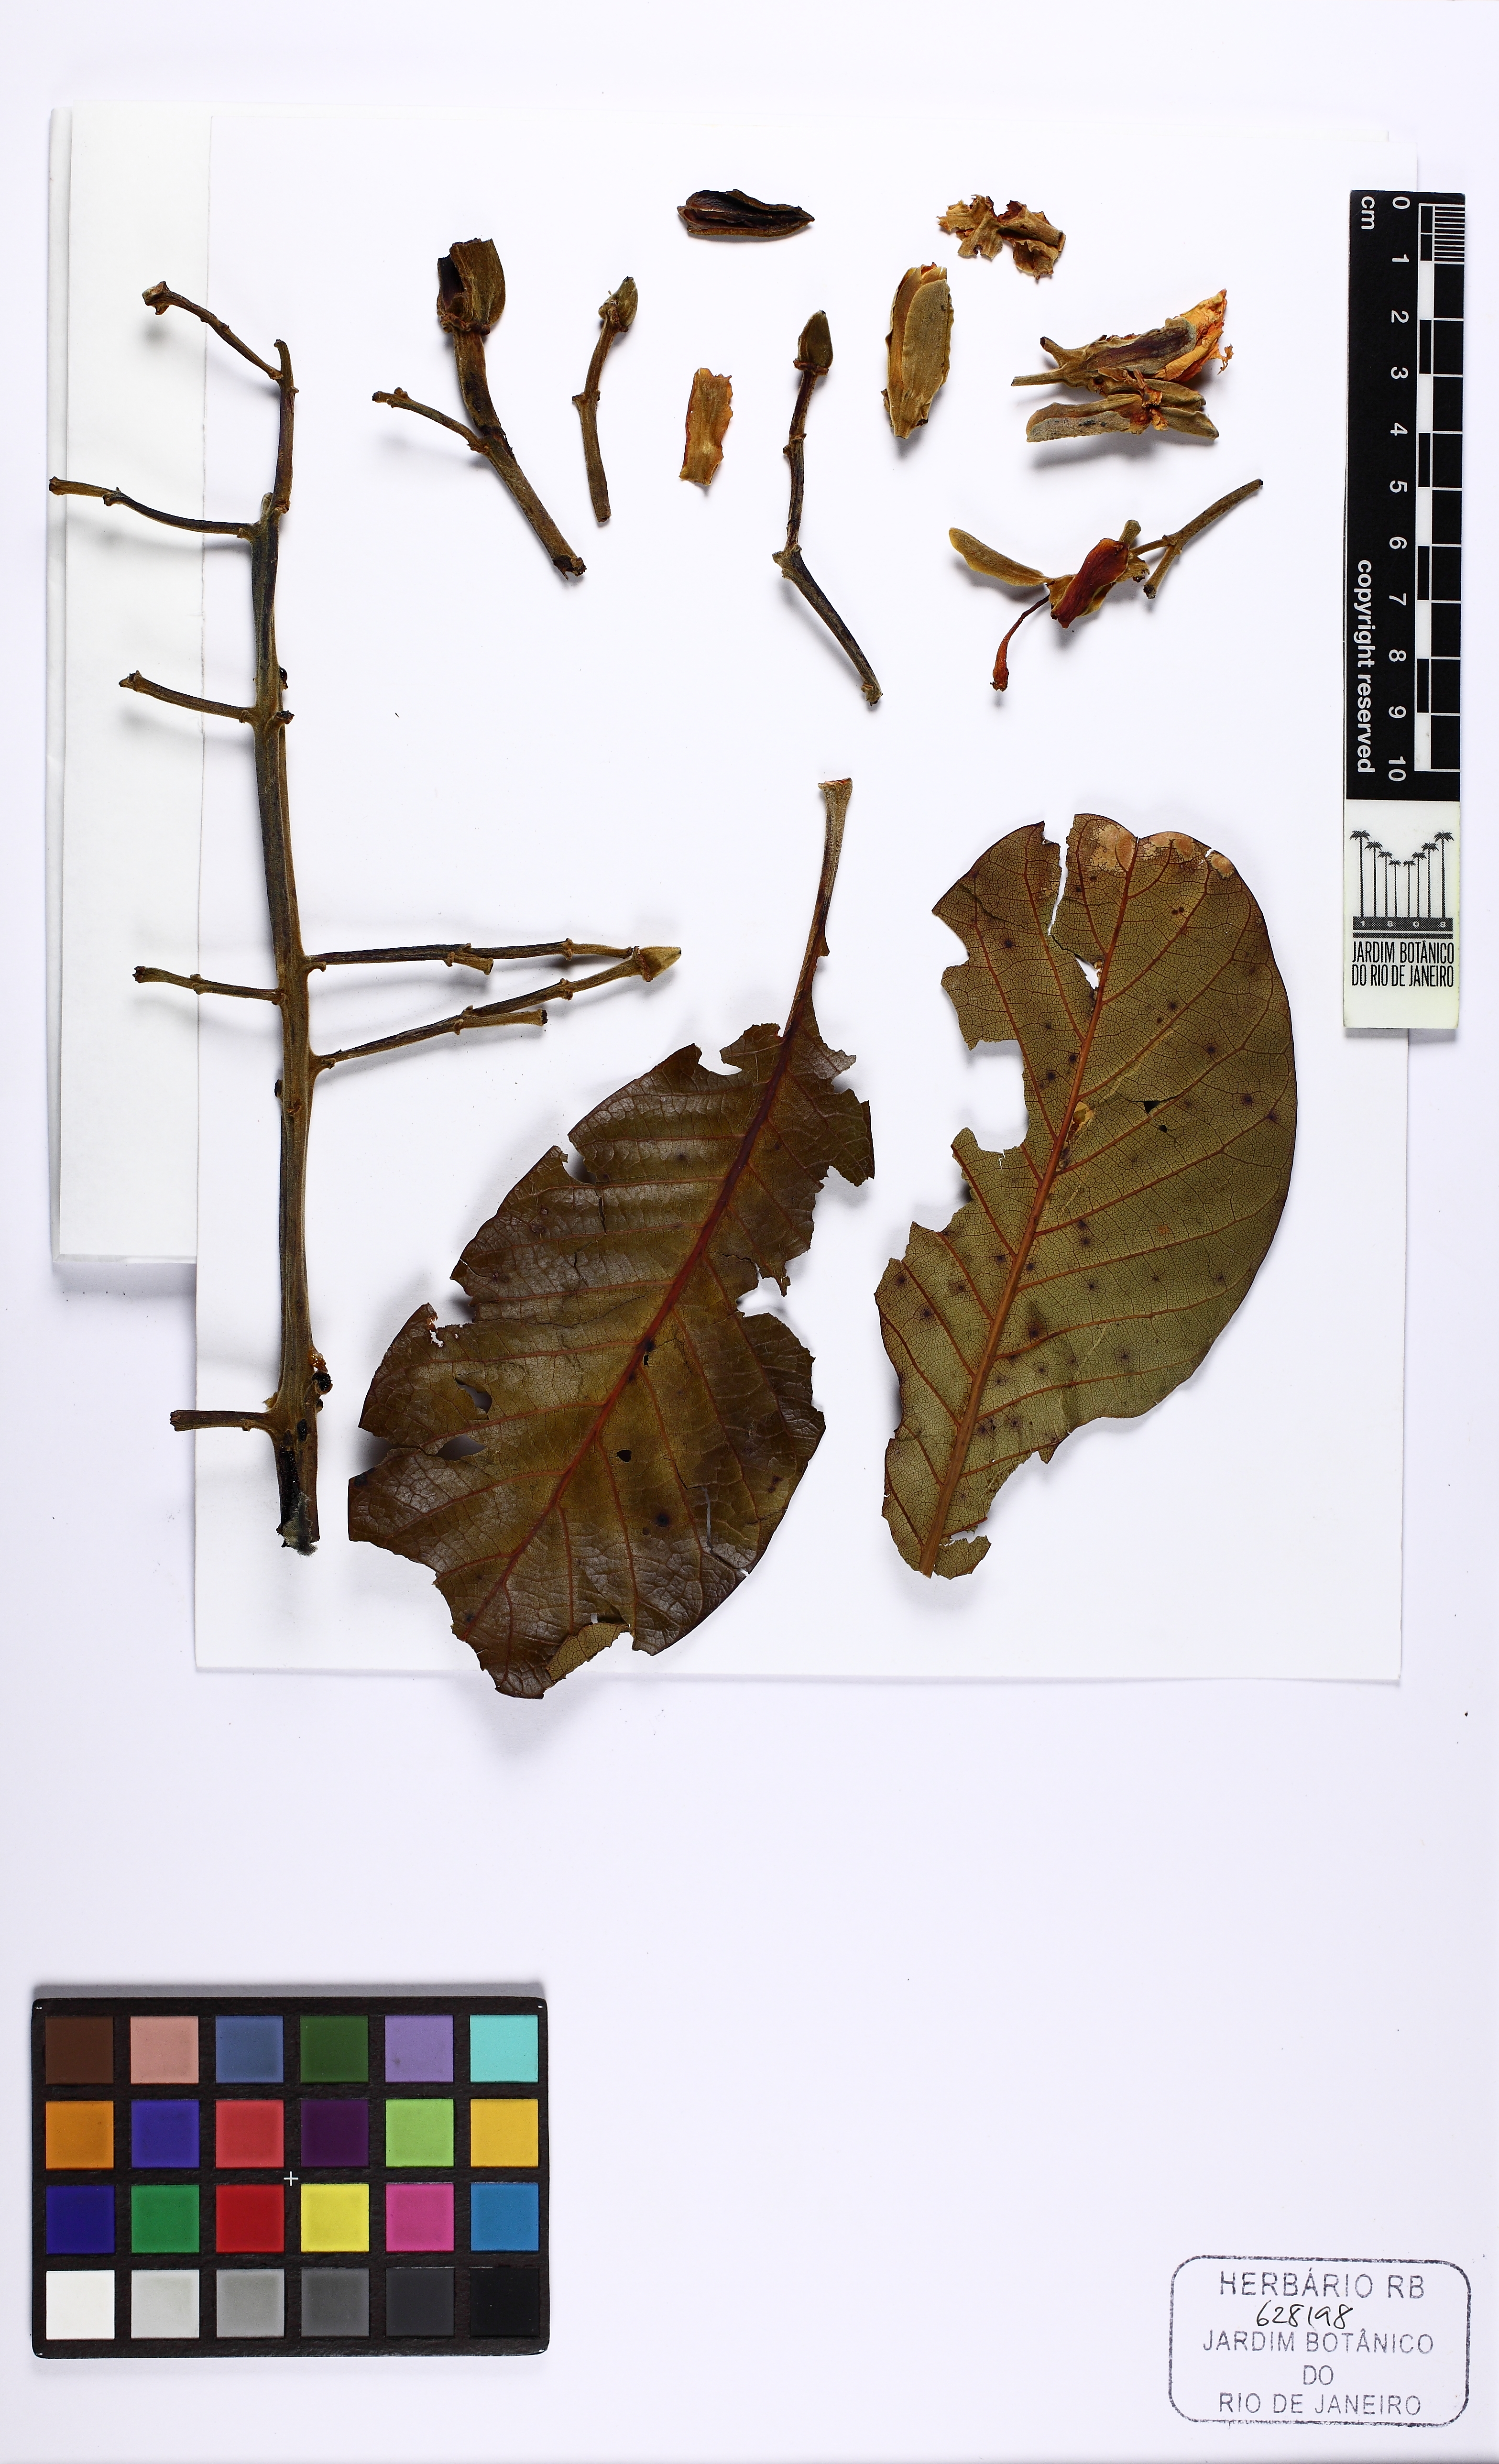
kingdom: Plantae
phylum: Tracheophyta
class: Magnoliopsida
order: Myrtales
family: Vochysiaceae
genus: Salvertia
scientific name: Salvertia convallariodora
